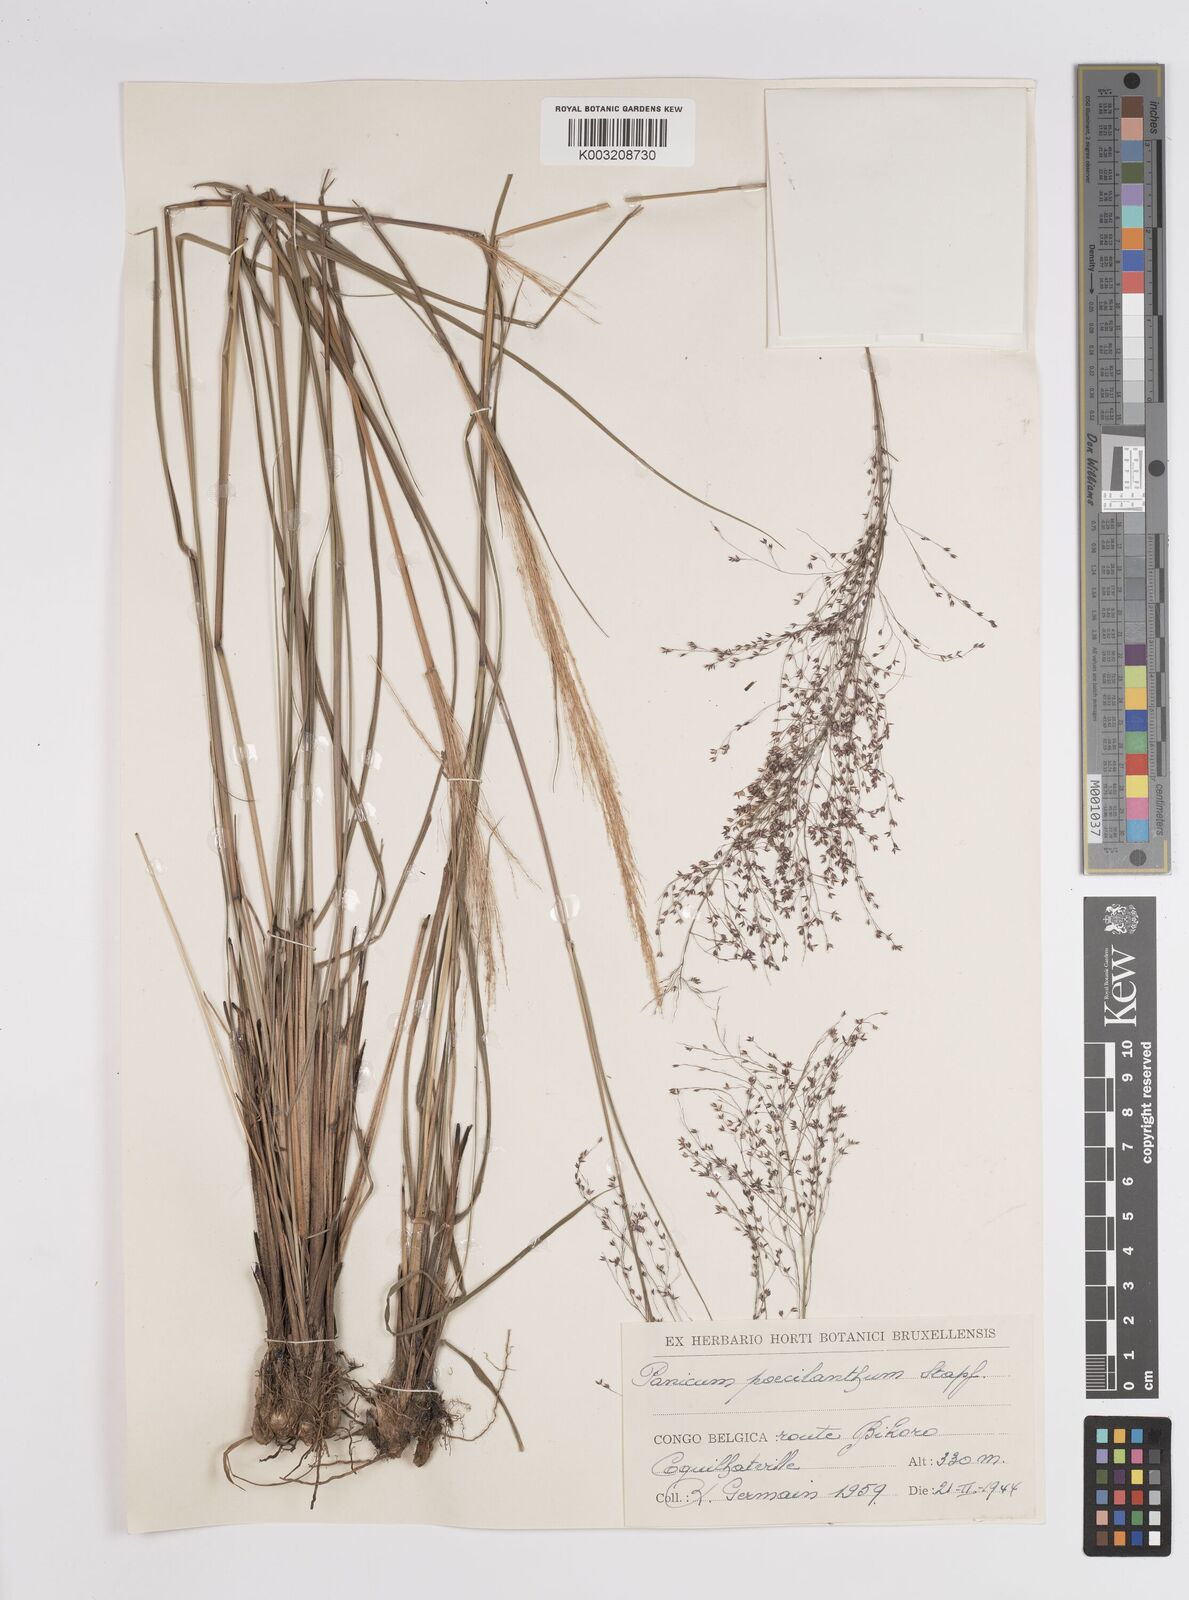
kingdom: Plantae
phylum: Tracheophyta
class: Liliopsida
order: Poales
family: Poaceae
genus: Panicum
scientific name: Panicum dregeanum
